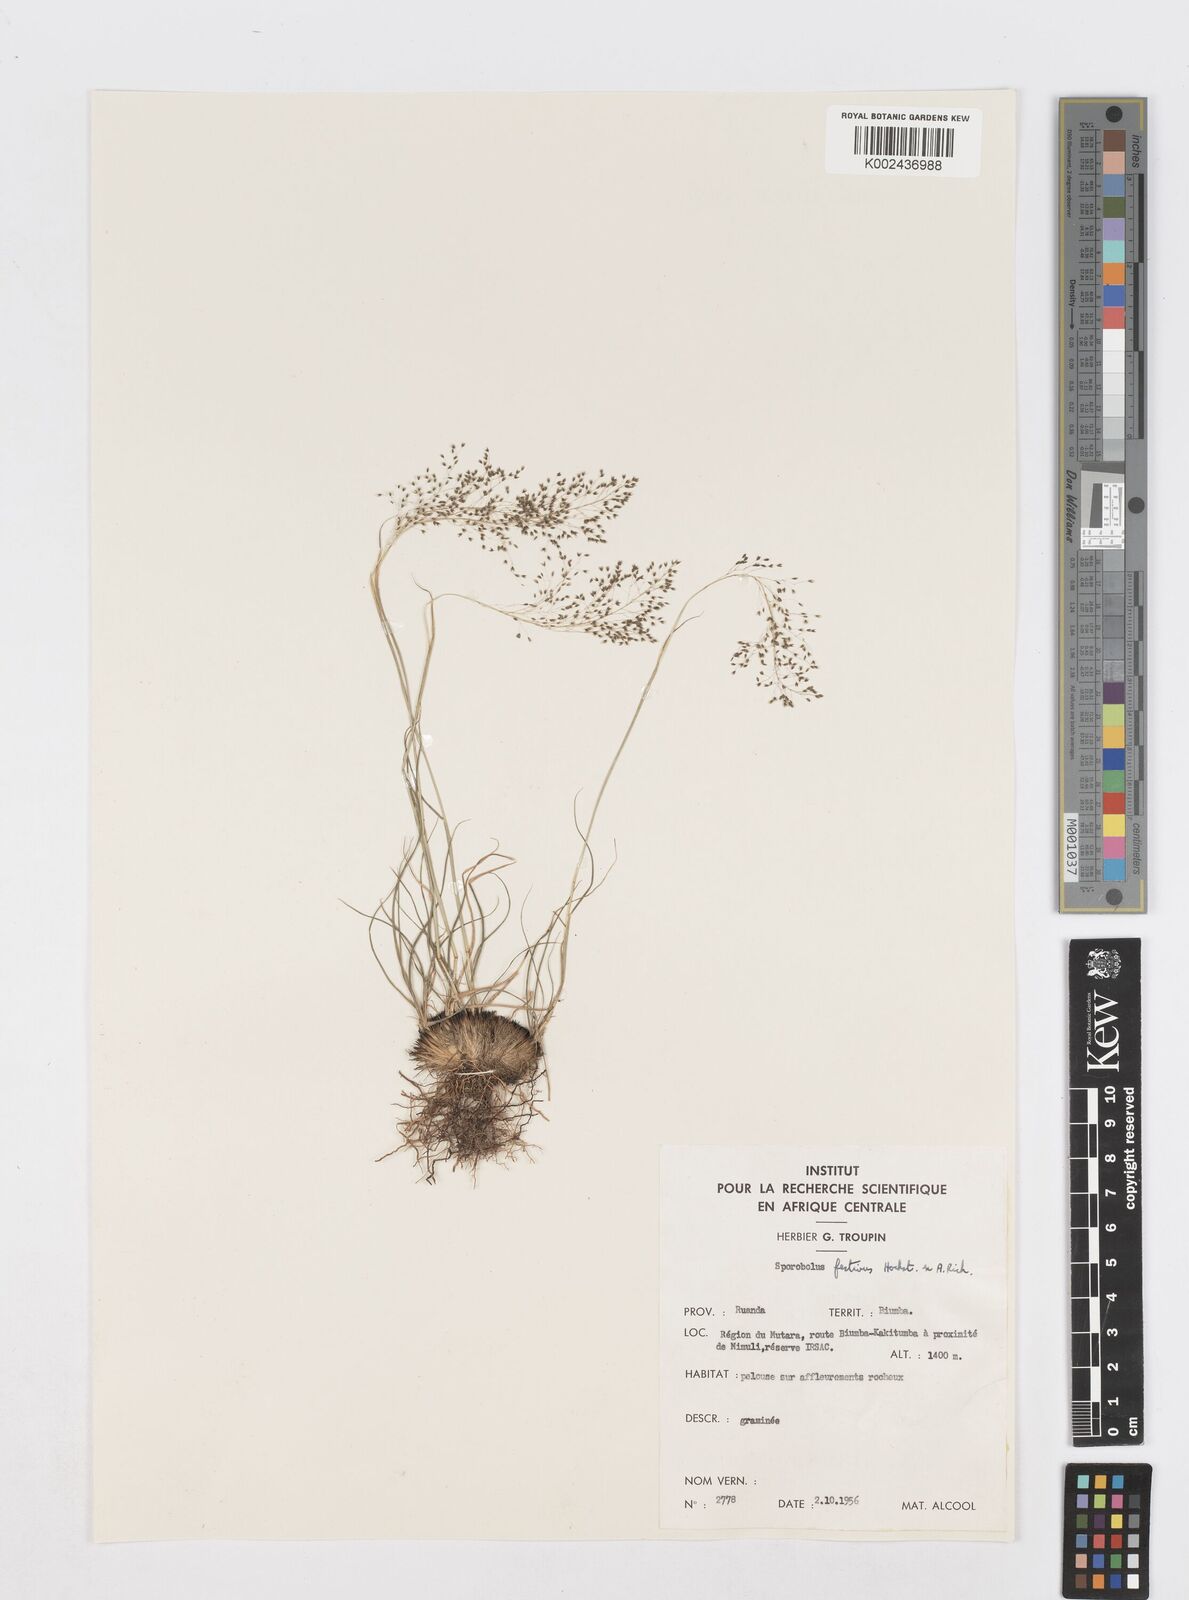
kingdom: Plantae
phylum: Tracheophyta
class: Liliopsida
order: Poales
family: Poaceae
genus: Sporobolus
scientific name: Sporobolus stapfianus
